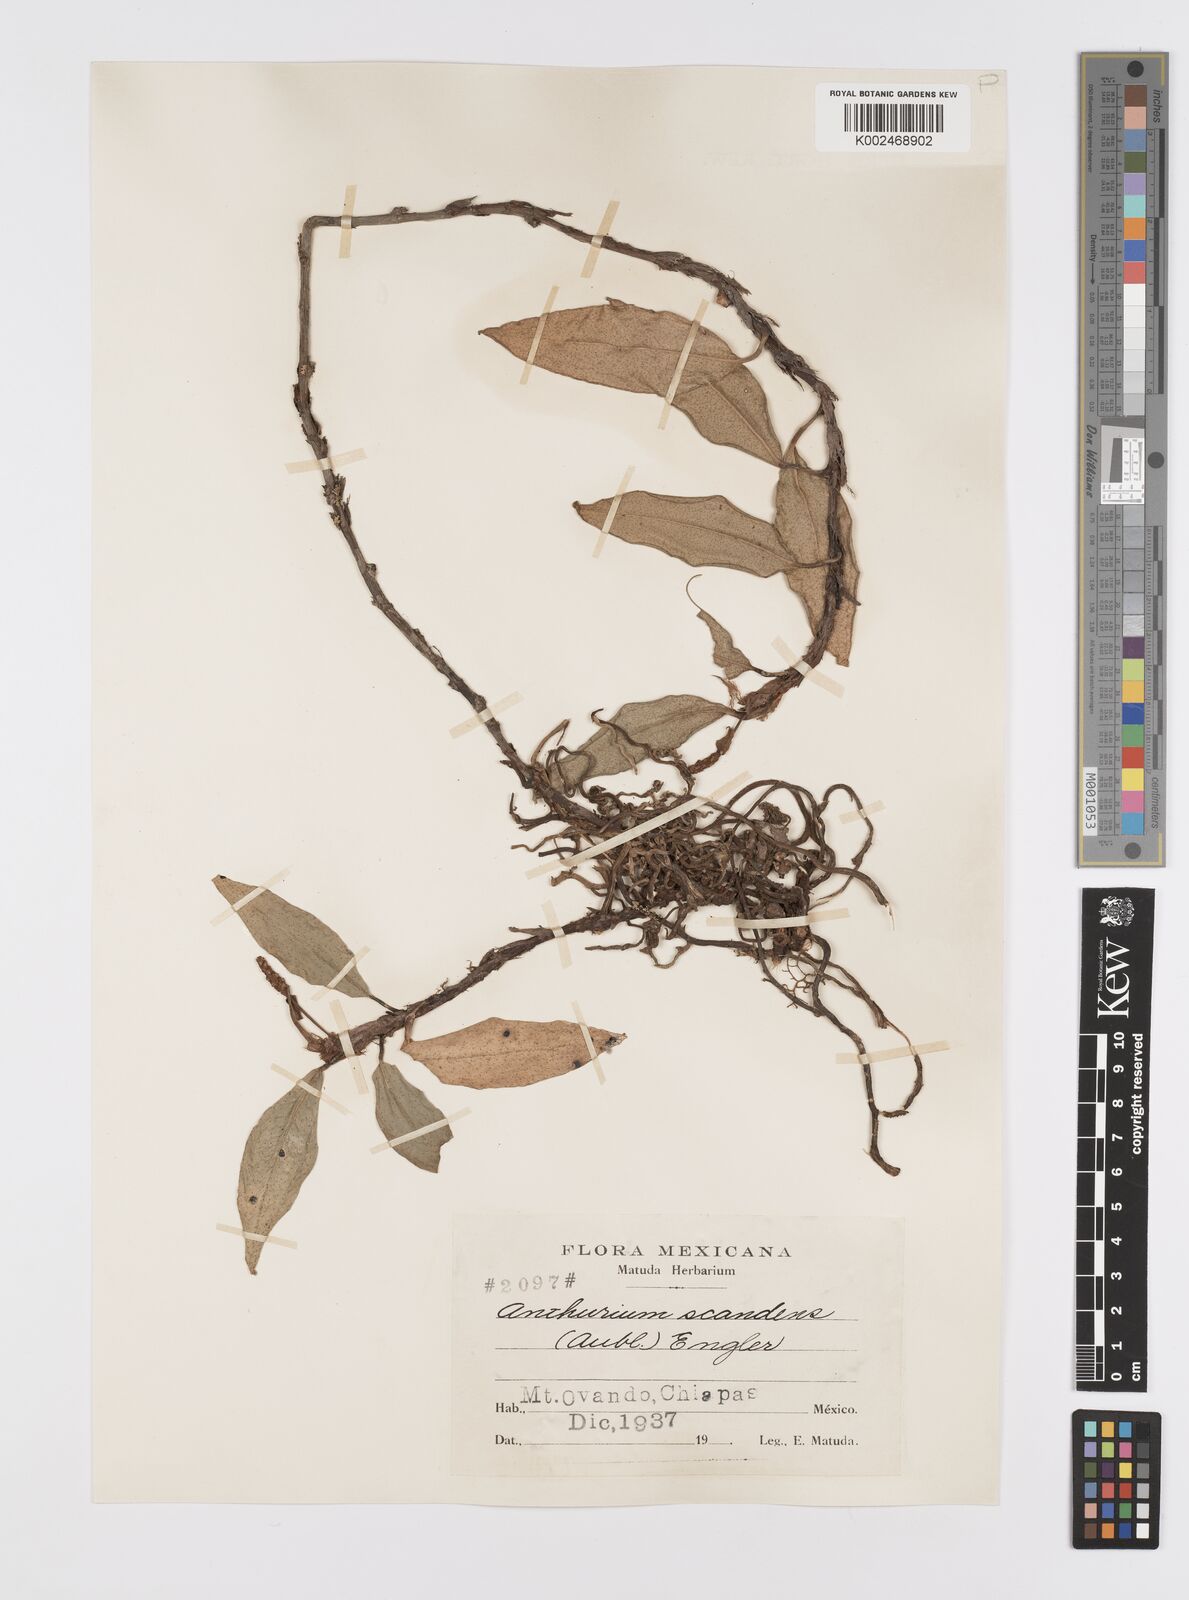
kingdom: Plantae
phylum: Tracheophyta
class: Liliopsida
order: Alismatales
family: Araceae
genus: Anthurium
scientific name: Anthurium scandens
